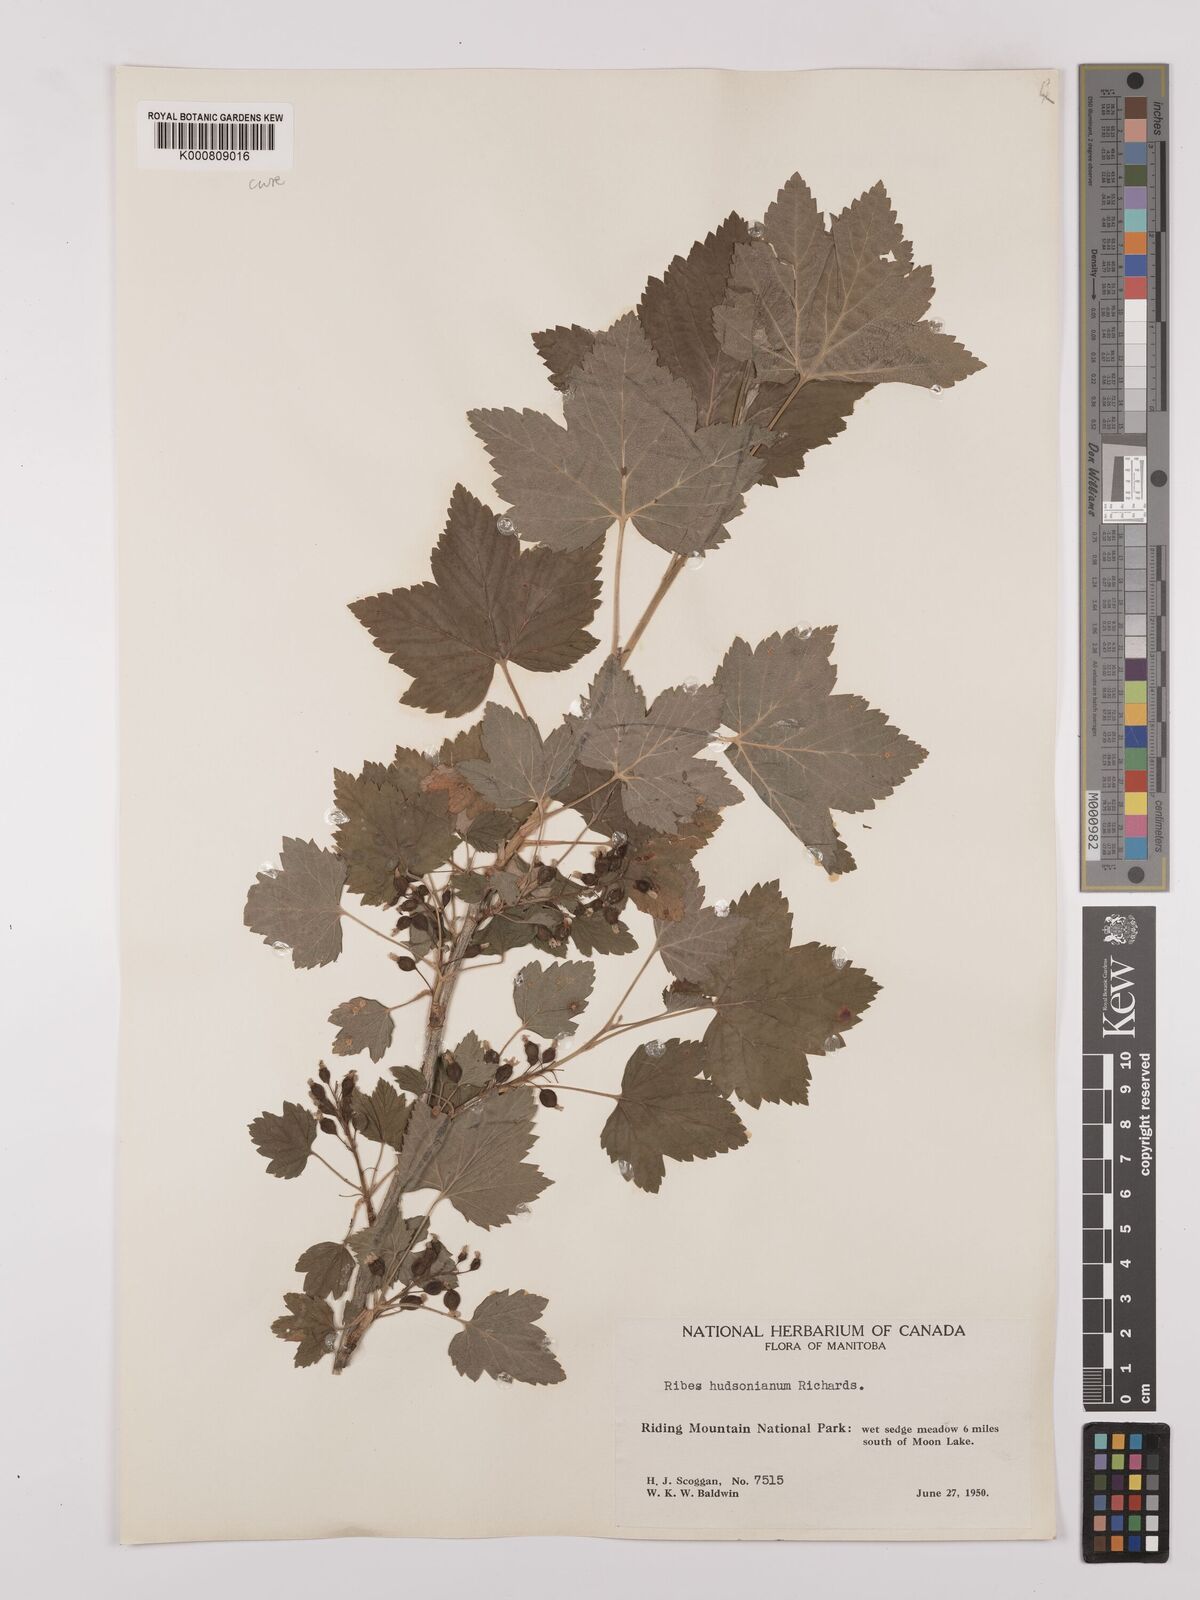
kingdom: Plantae
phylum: Tracheophyta
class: Magnoliopsida
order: Saxifragales
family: Grossulariaceae
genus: Ribes
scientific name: Ribes hudsonianum
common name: Northern black currant
